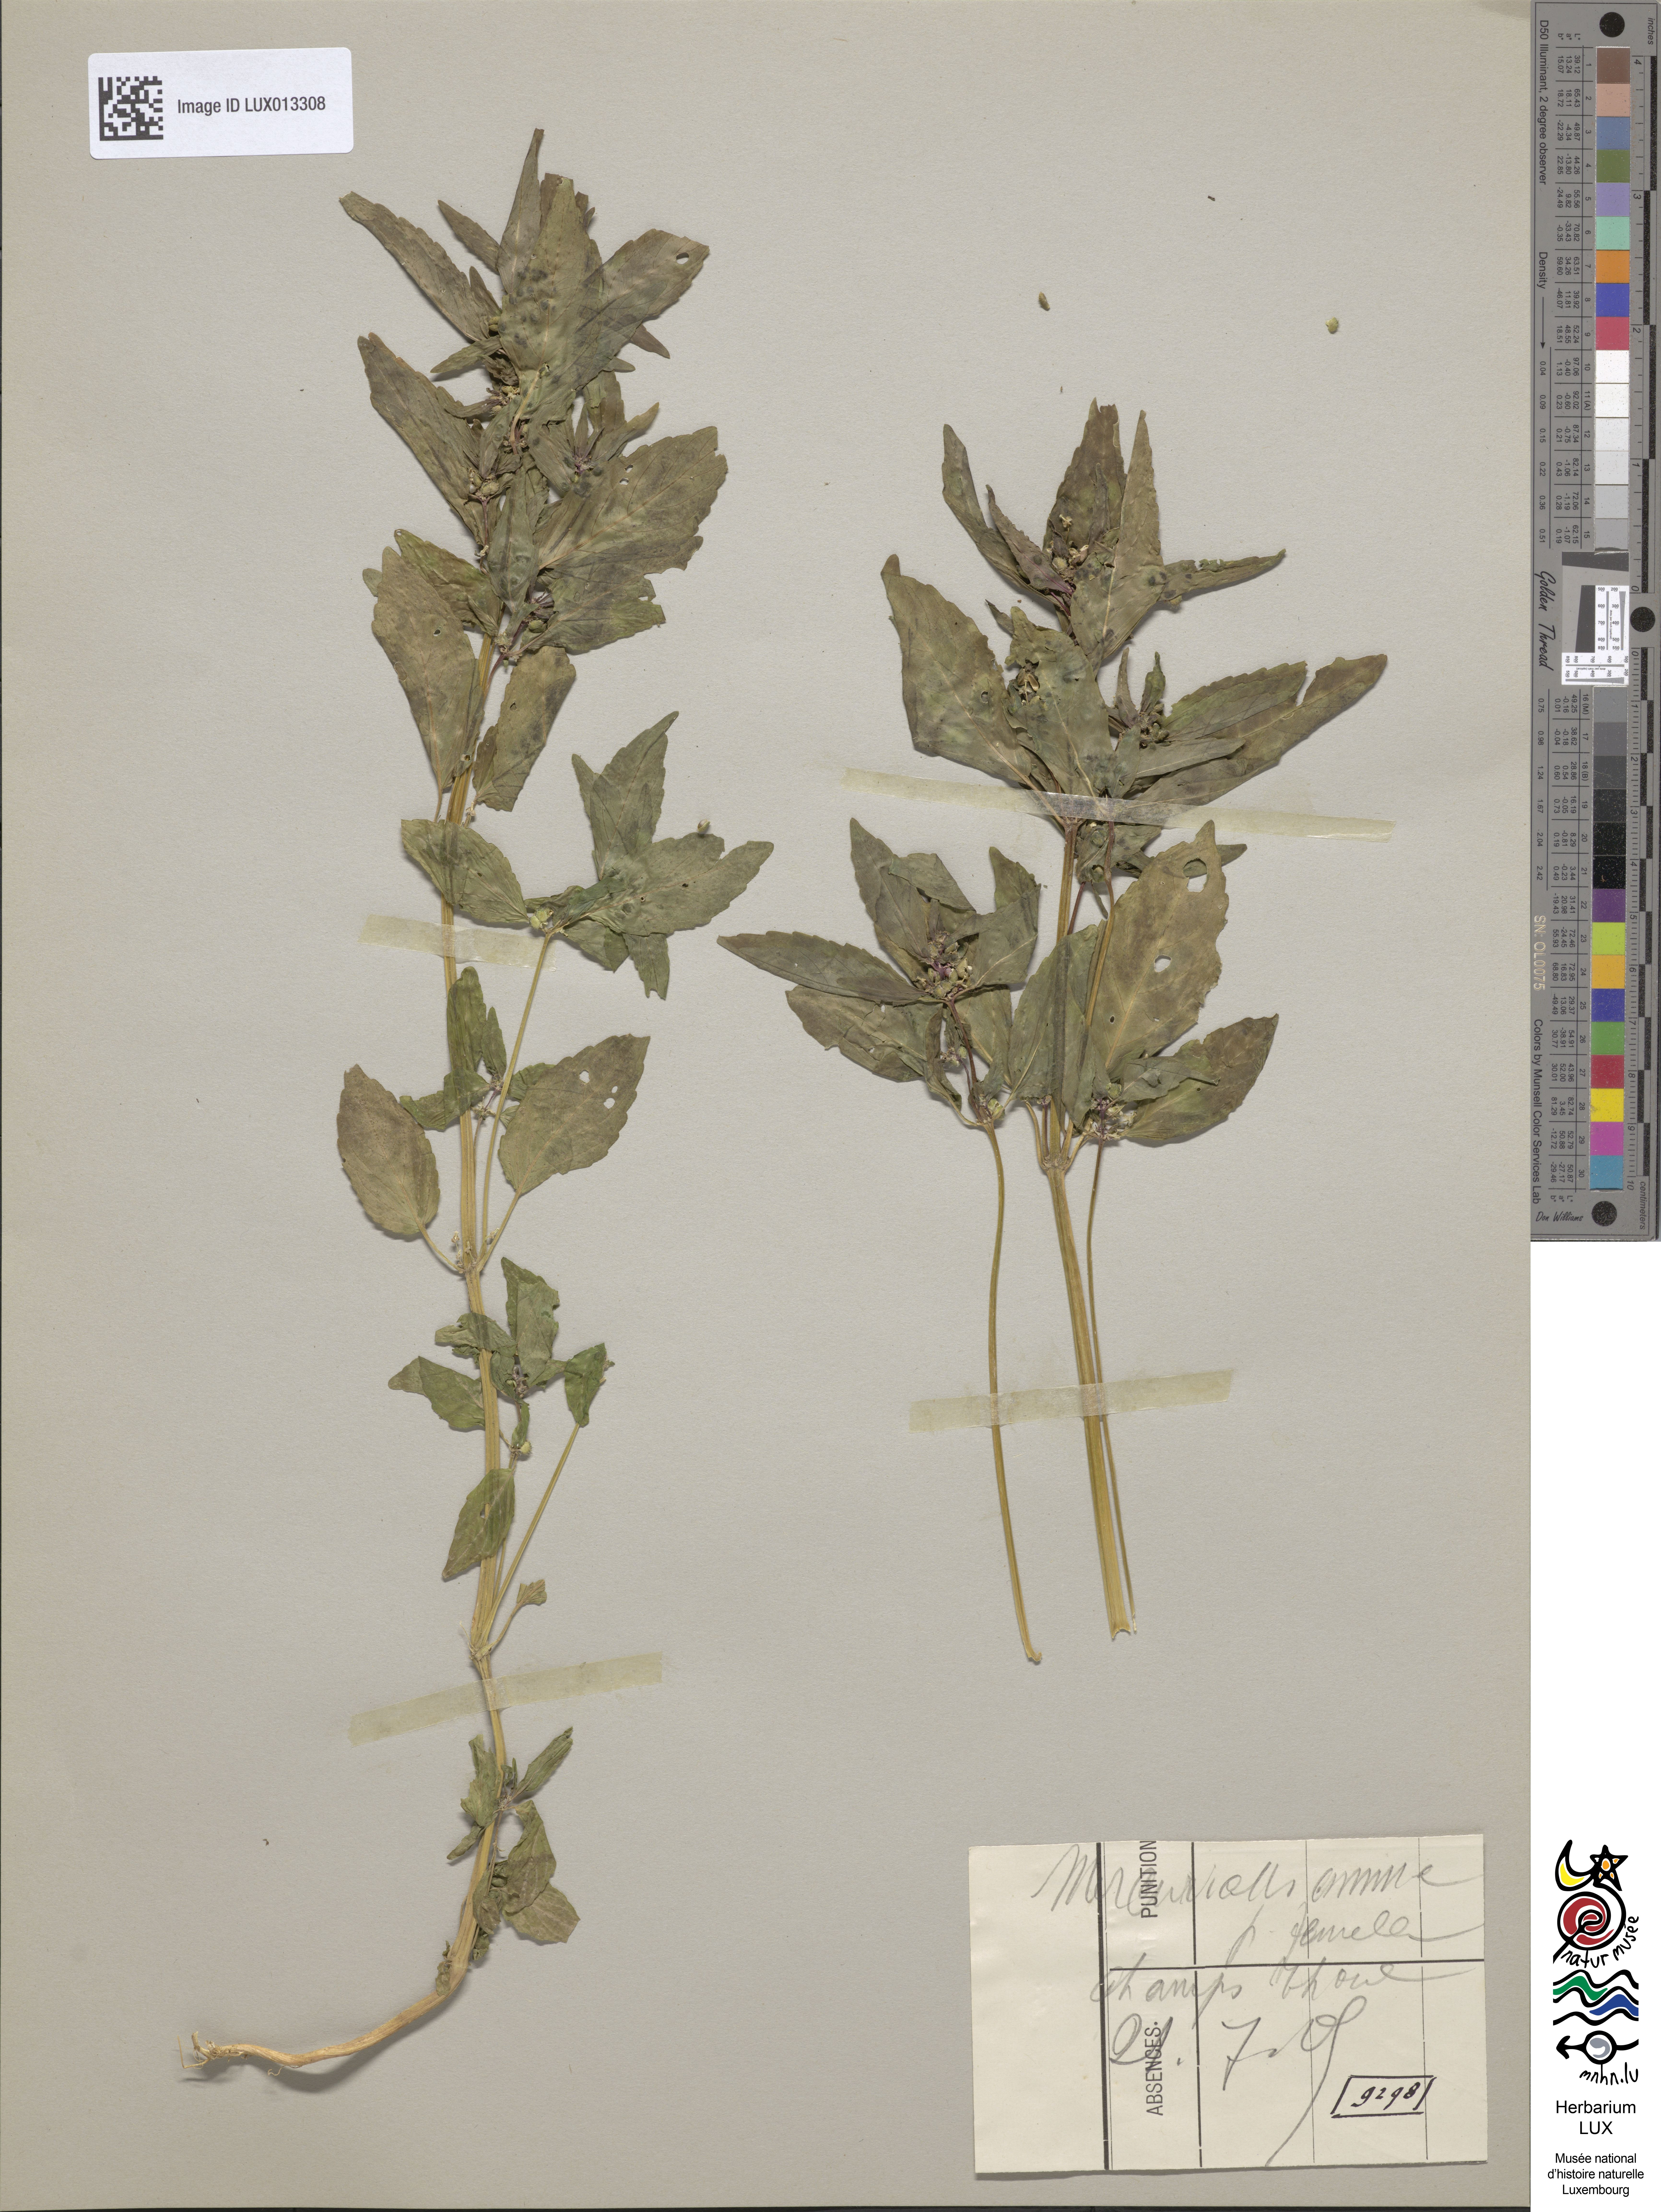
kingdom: Plantae
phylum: Tracheophyta
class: Magnoliopsida
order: Malpighiales
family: Euphorbiaceae
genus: Mercurialis
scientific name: Mercurialis annua
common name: Annual mercury
